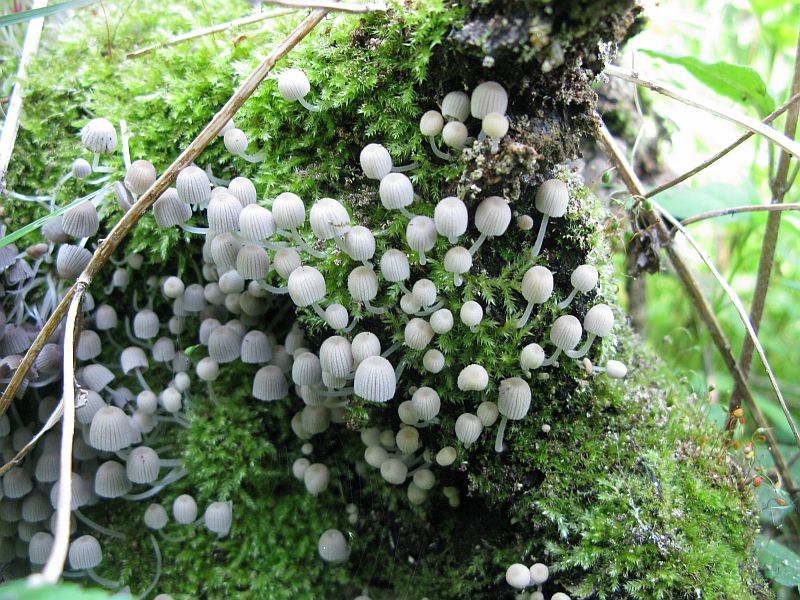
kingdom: Fungi
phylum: Basidiomycota
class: Agaricomycetes
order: Agaricales
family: Psathyrellaceae
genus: Coprinellus
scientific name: Coprinellus disseminatus
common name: bredsået blækhat
